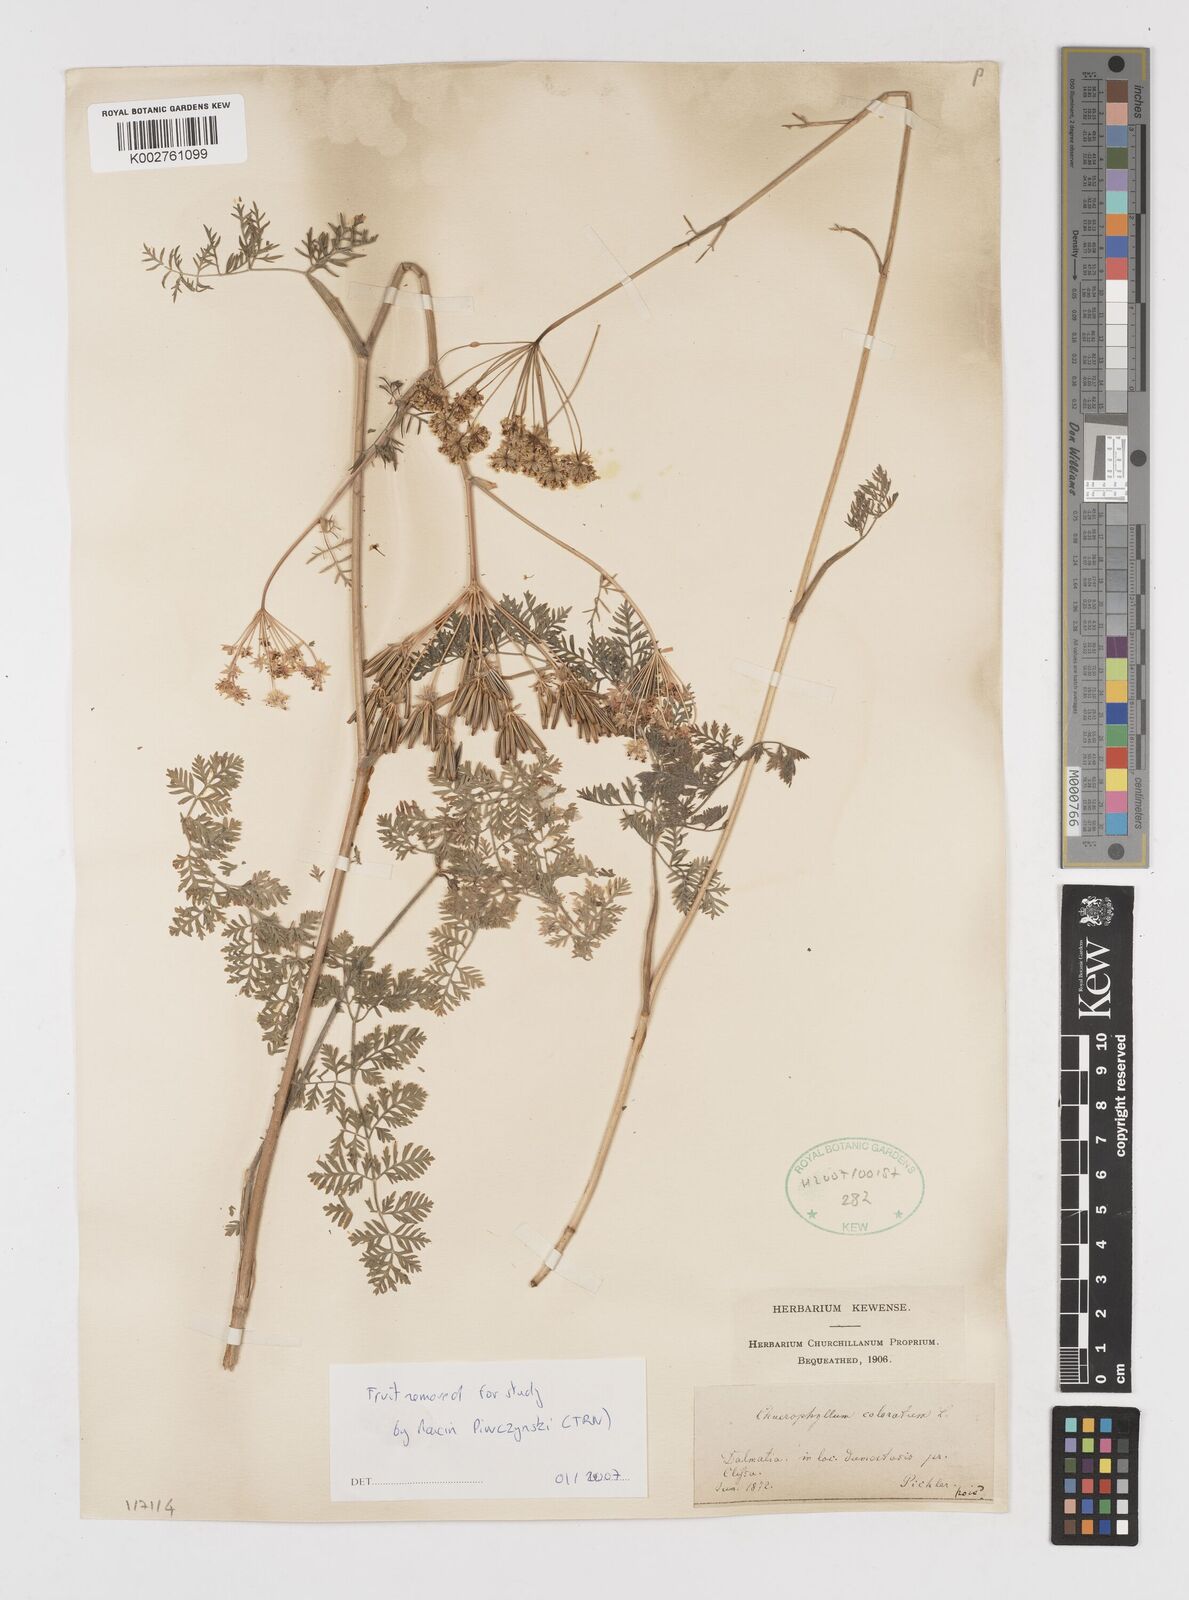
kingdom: Plantae
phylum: Tracheophyta
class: Magnoliopsida
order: Apiales
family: Apiaceae
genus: Chaerophyllum
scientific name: Chaerophyllum coloratum
